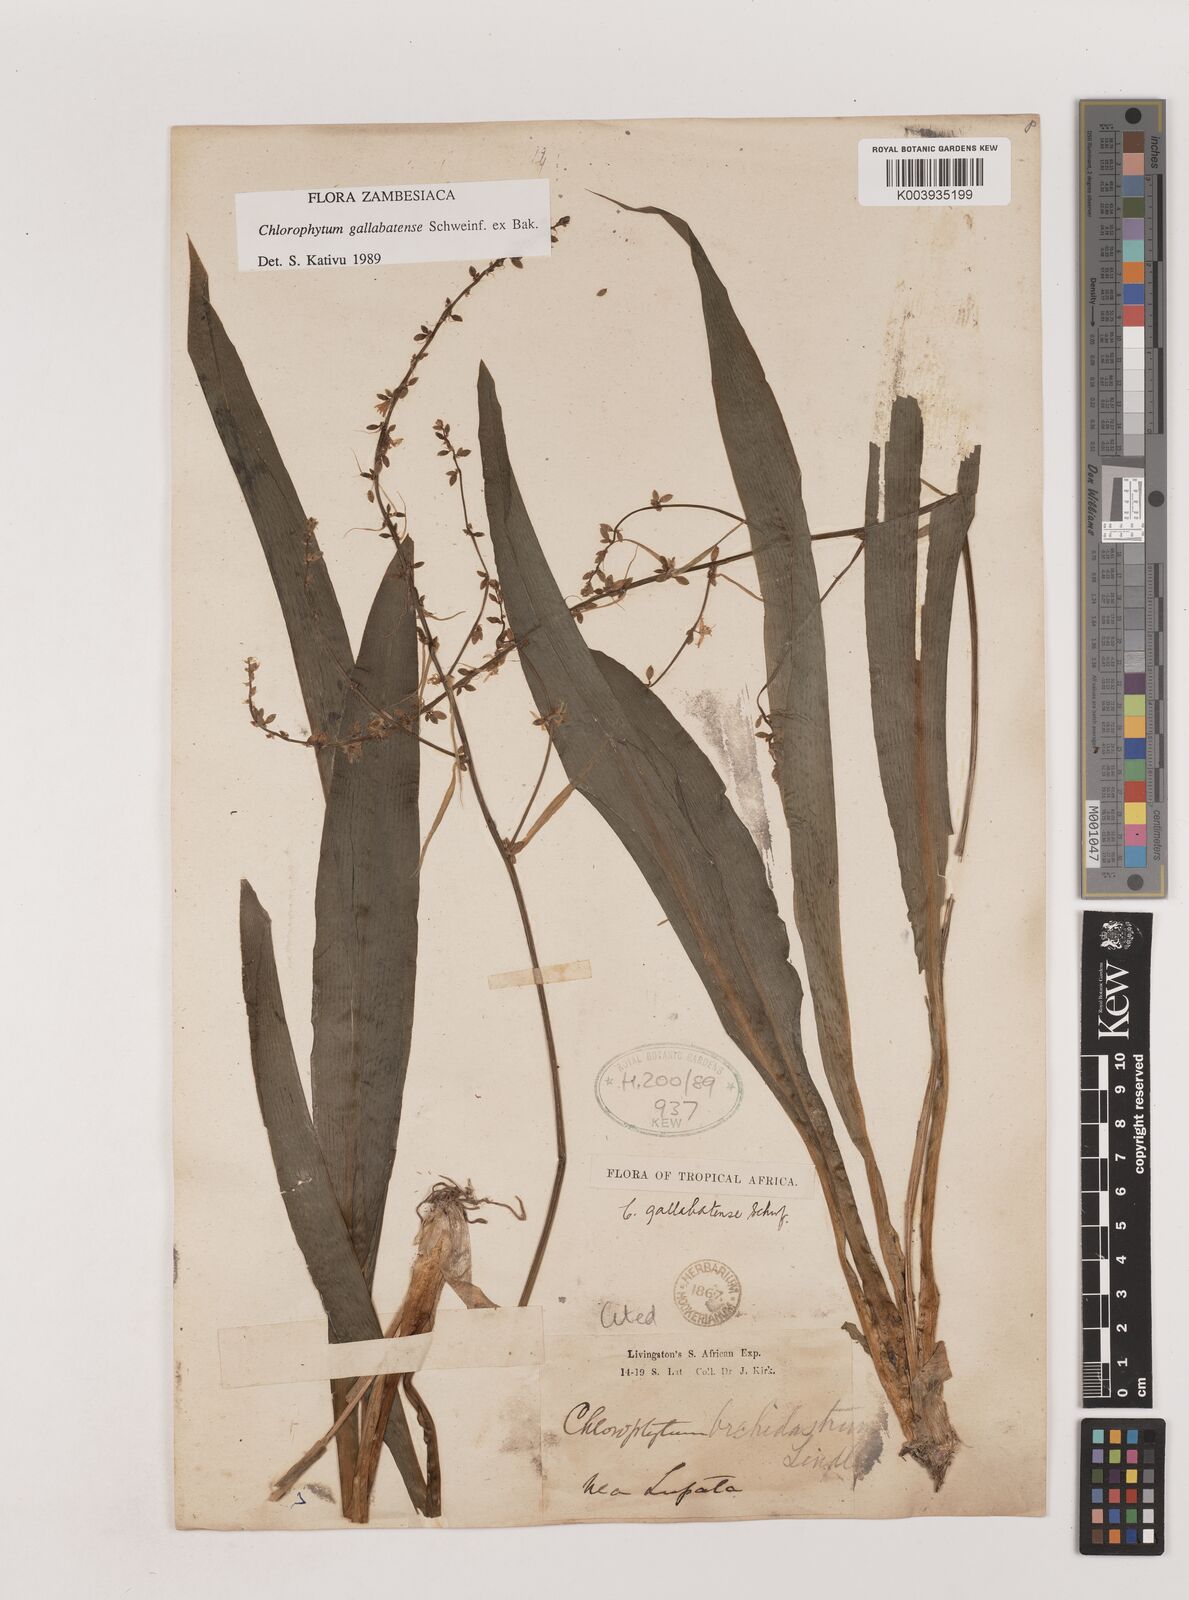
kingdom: Plantae
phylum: Tracheophyta
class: Liliopsida
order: Asparagales
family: Asparagaceae
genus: Chlorophytum
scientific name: Chlorophytum gallabatense
